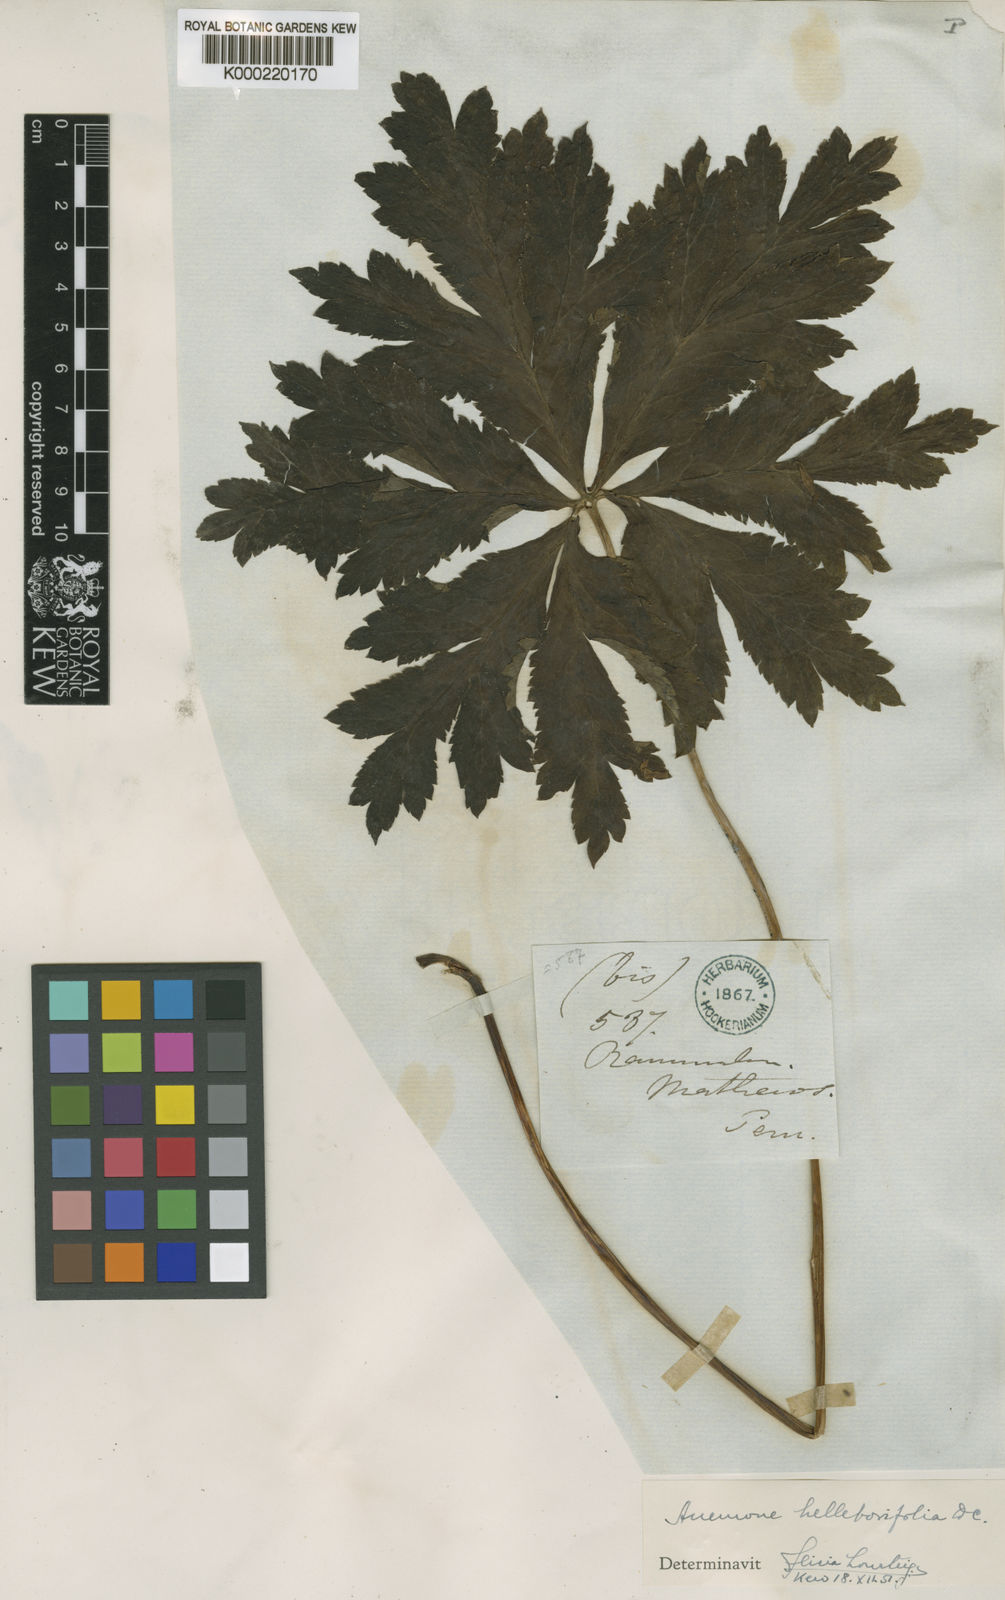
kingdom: Plantae
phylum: Tracheophyta
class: Magnoliopsida
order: Ranunculales
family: Ranunculaceae
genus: Knowltonia
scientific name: Knowltonia helleborifolia
